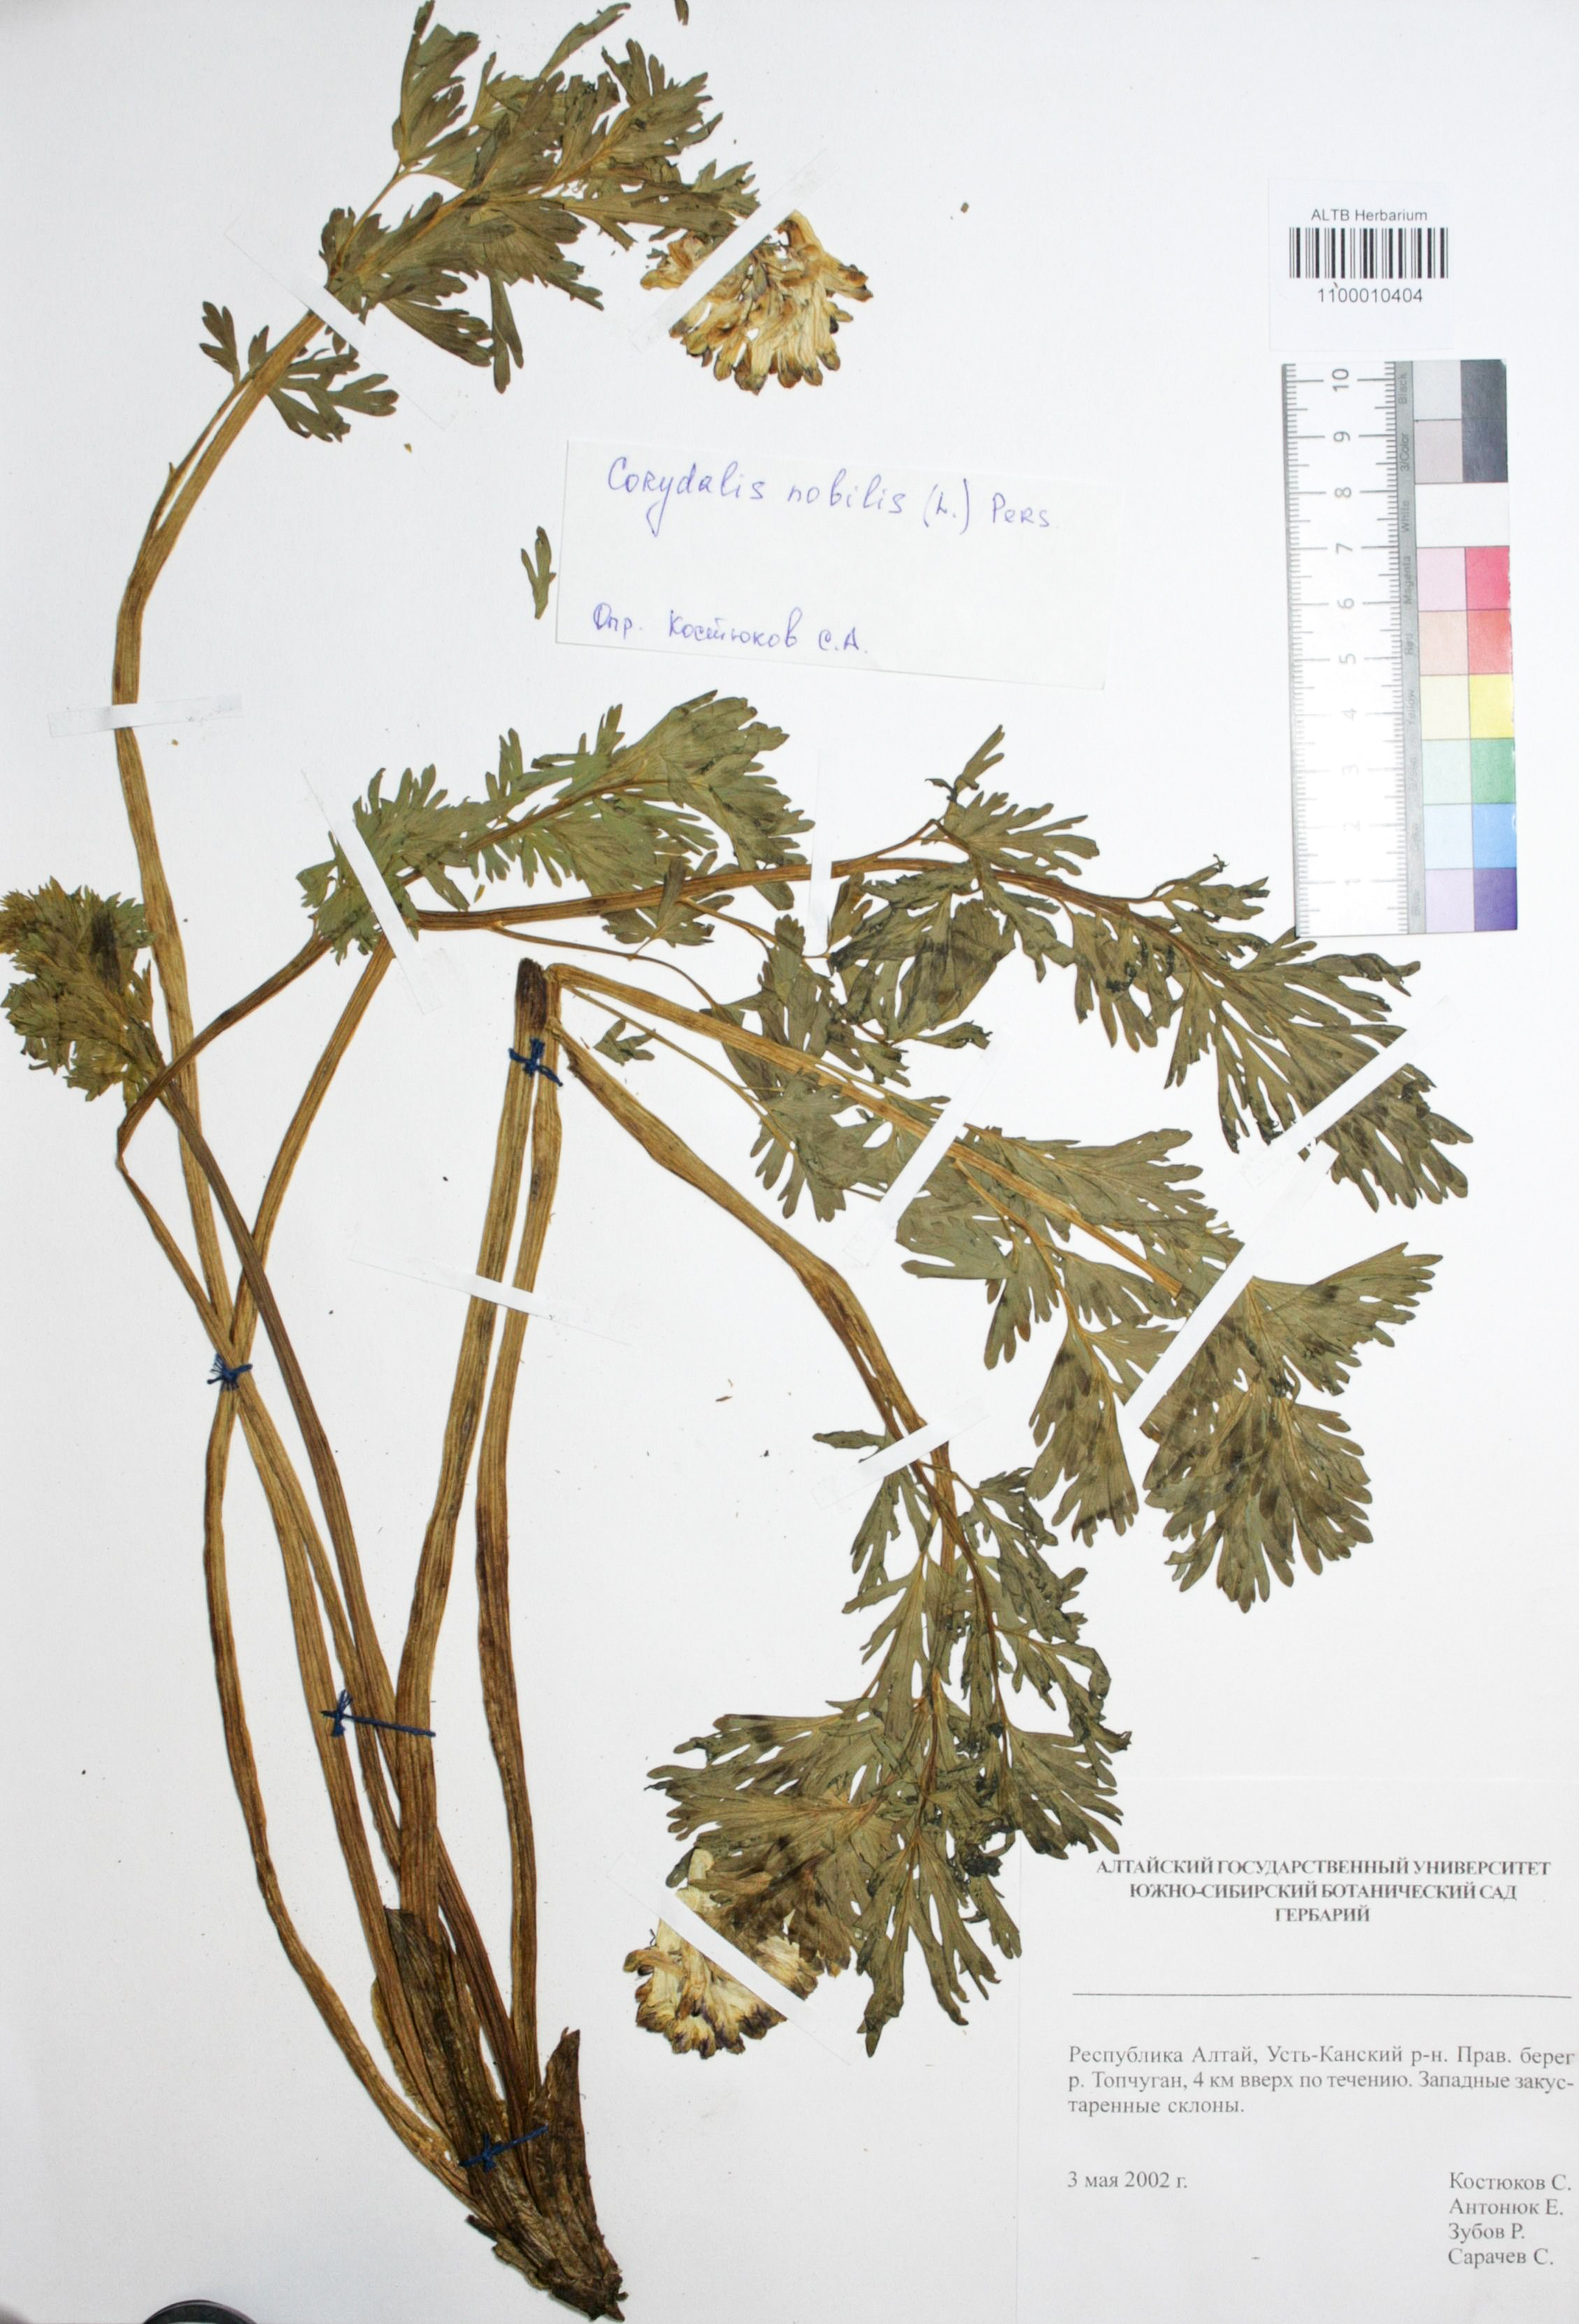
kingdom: Plantae
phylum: Tracheophyta
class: Magnoliopsida
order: Ranunculales
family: Papaveraceae
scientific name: Papaveraceae
